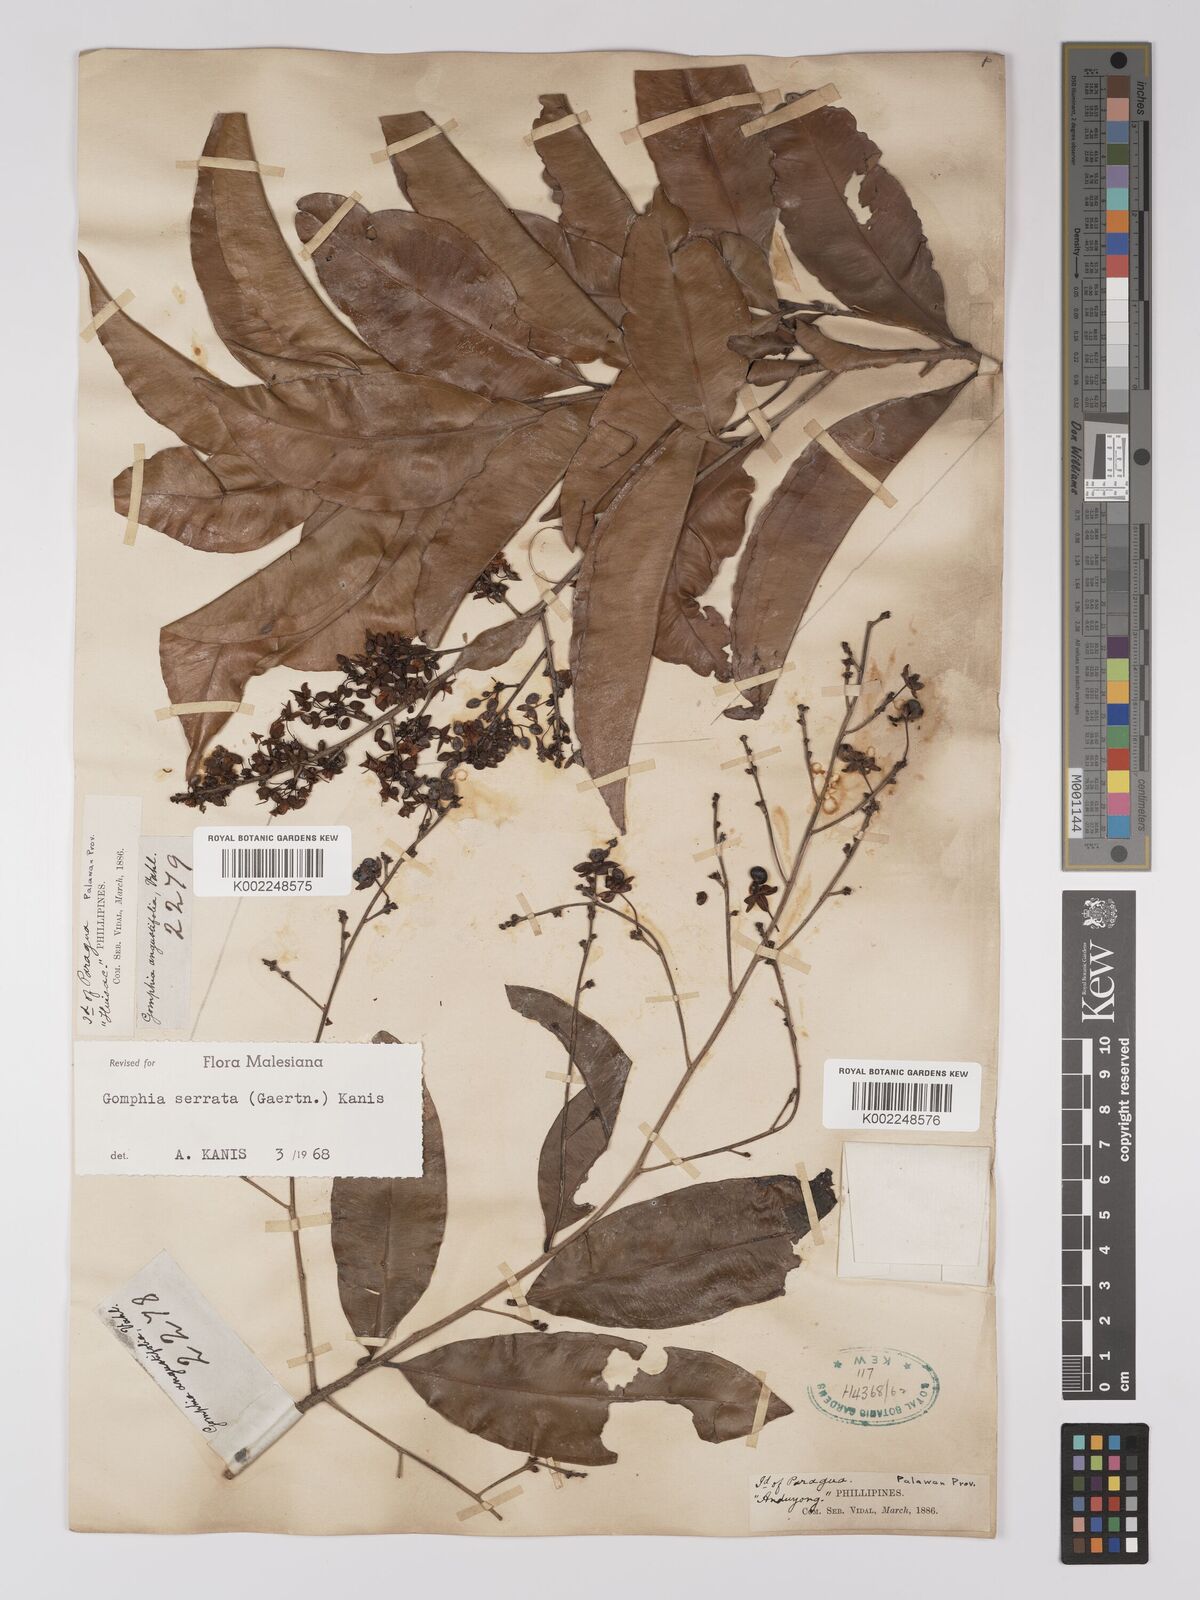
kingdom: Plantae
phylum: Tracheophyta
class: Magnoliopsida
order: Malpighiales
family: Ochnaceae
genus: Gomphia
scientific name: Gomphia serrata
